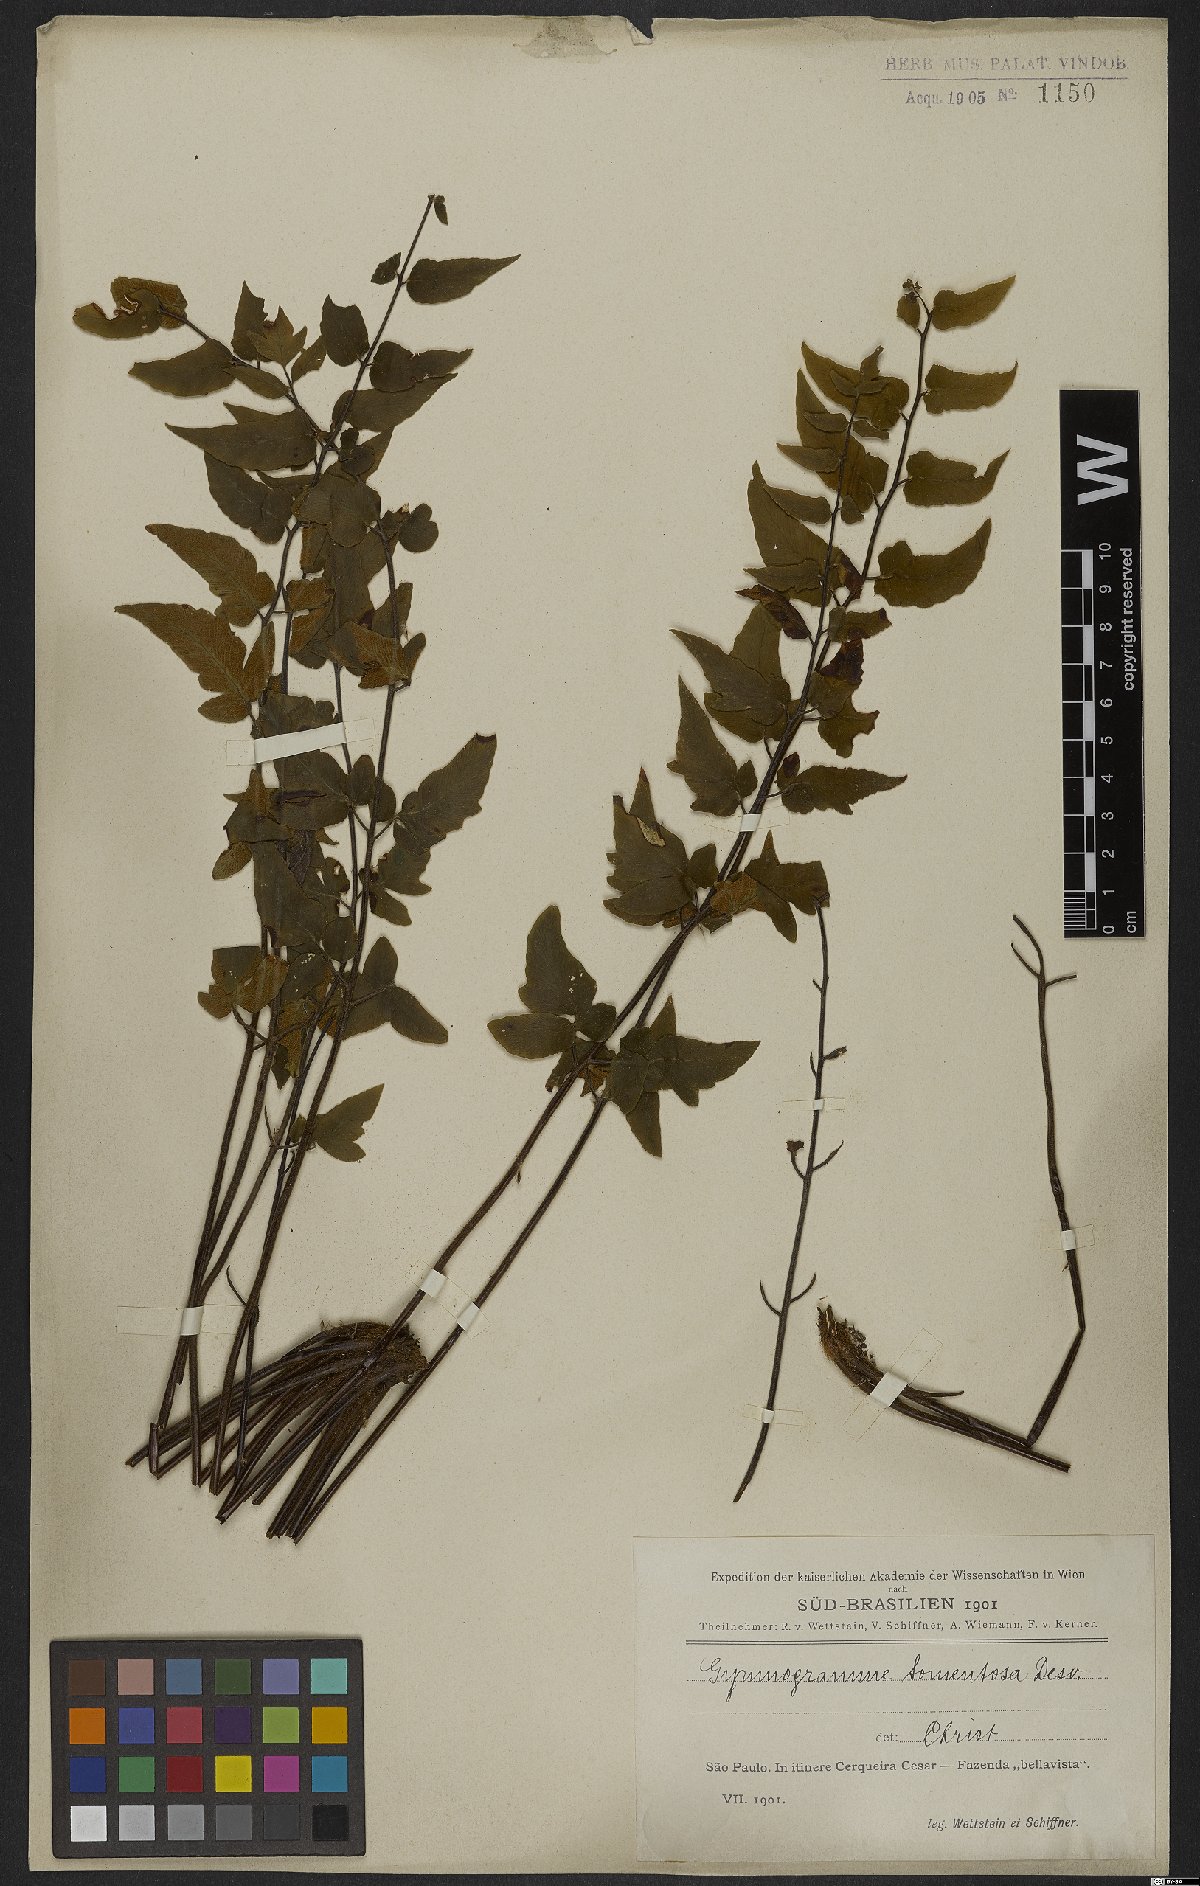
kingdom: Plantae
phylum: Tracheophyta
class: Polypodiopsida
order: Polypodiales
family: Pteridaceae
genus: Hemionitis
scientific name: Hemionitis tomentosa
